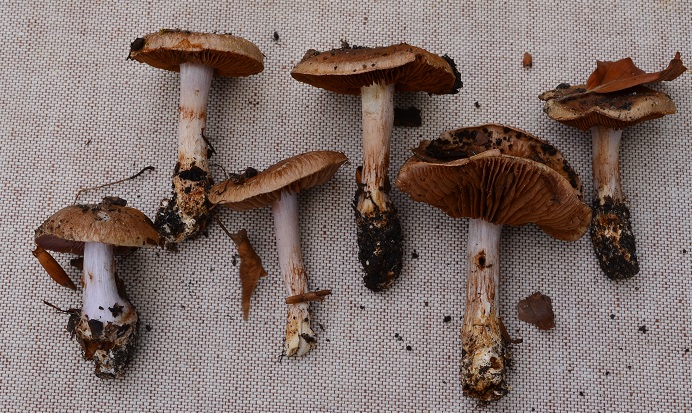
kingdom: Fungi
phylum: Basidiomycota
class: Agaricomycetes
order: Agaricales
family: Cortinariaceae
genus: Calonarius
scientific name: Calonarius aureocalceolatus
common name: spidsknoldet Slørhat
